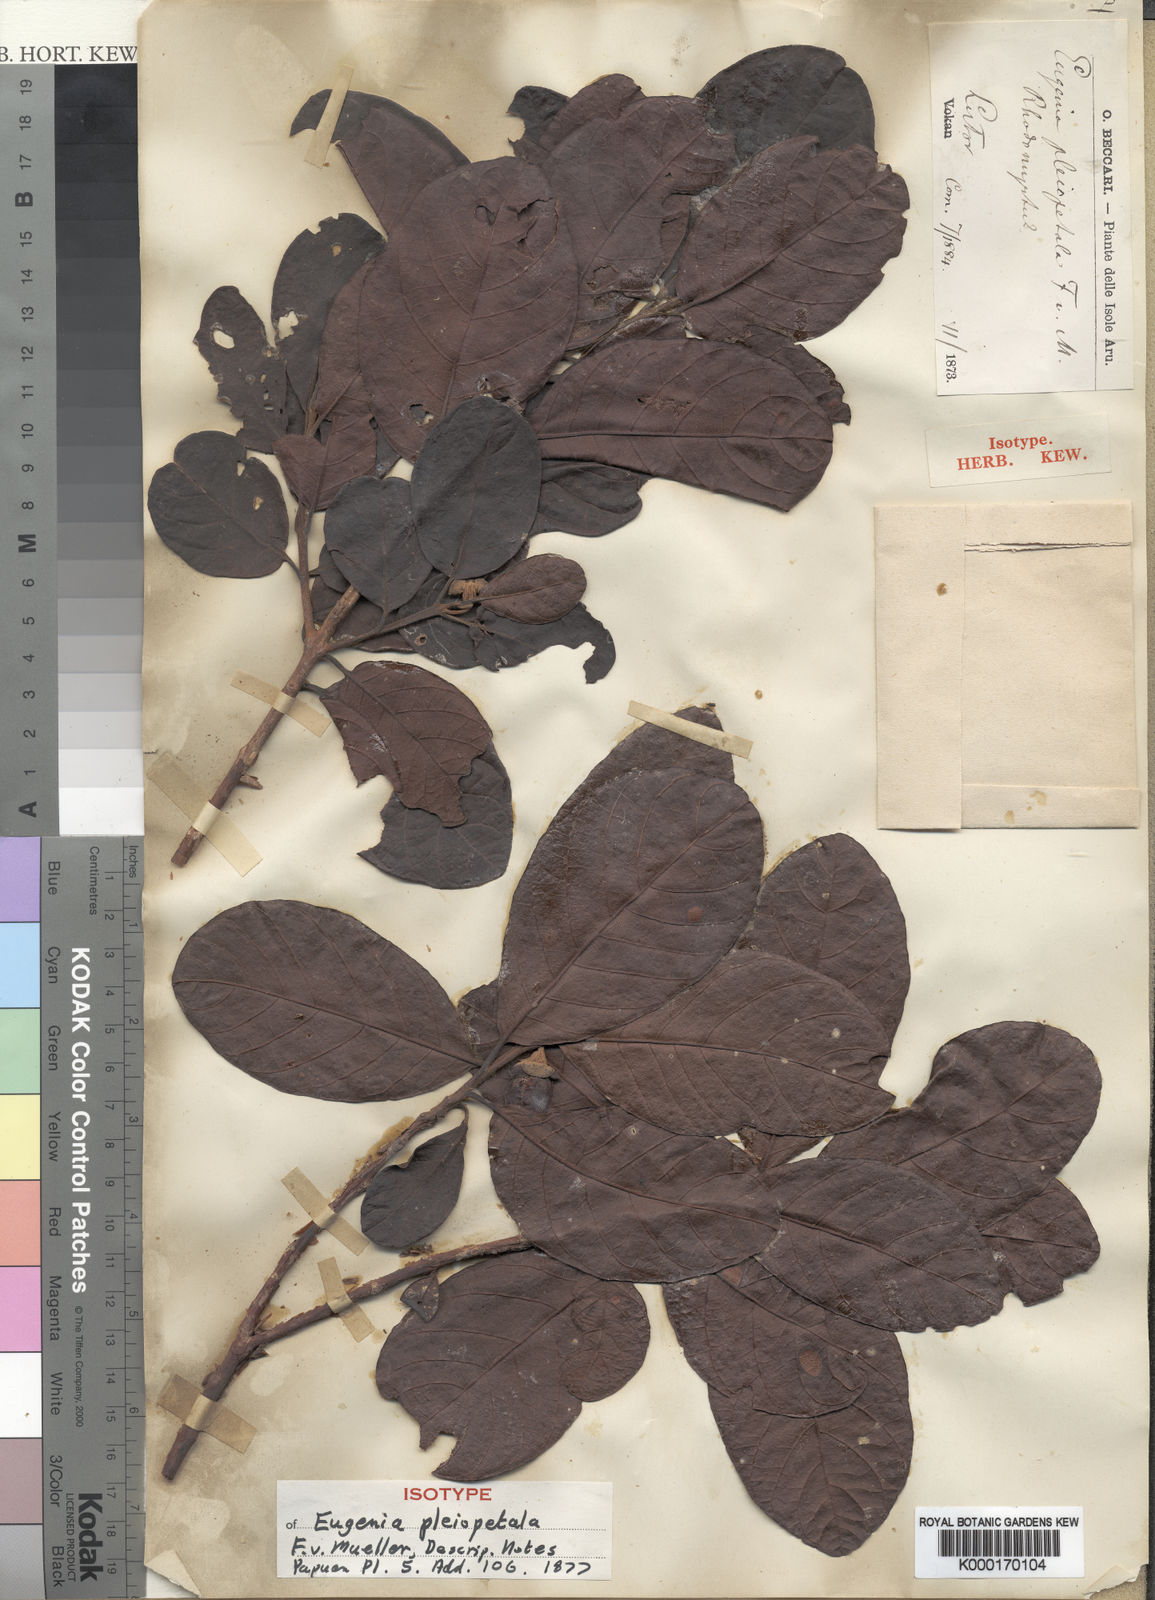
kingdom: Plantae
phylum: Tracheophyta
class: Magnoliopsida
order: Myrtales
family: Myrtaceae
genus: Octamyrtus
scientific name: Octamyrtus pleiopetala
